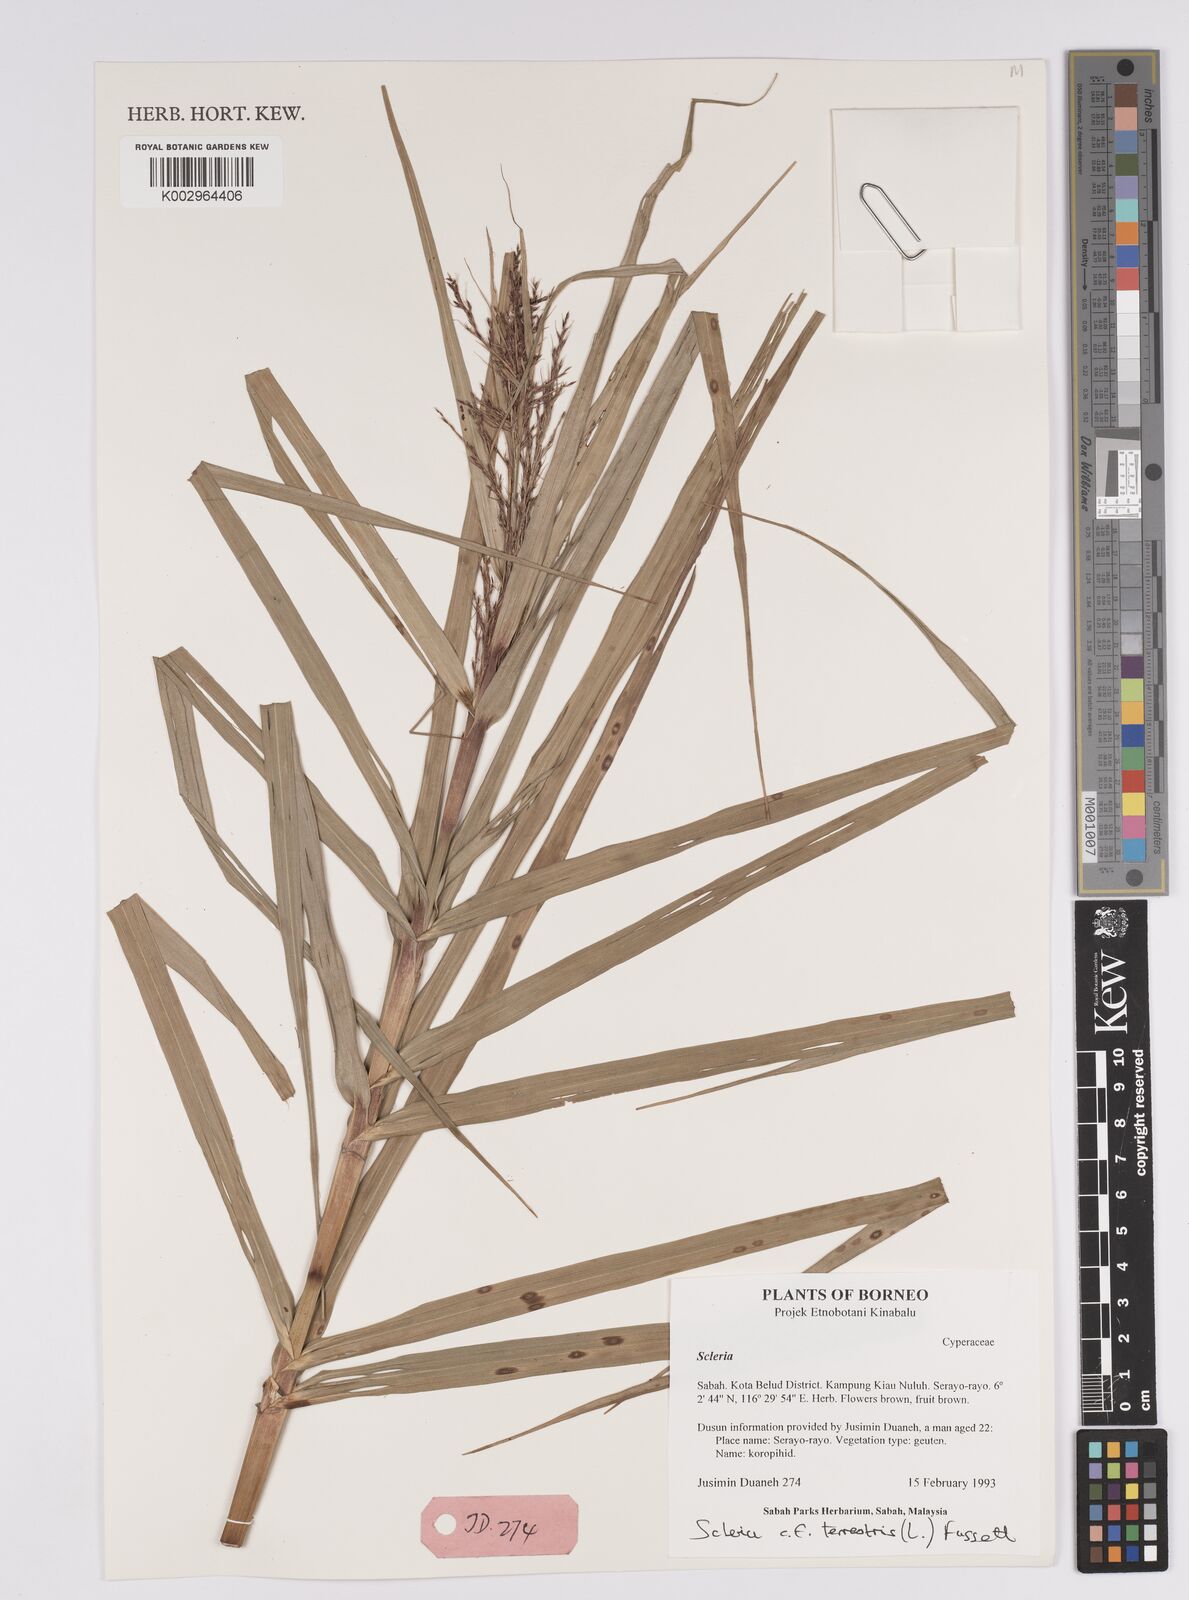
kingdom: Plantae
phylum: Tracheophyta
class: Liliopsida
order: Poales
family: Cyperaceae
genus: Scleria
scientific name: Scleria terrestris
